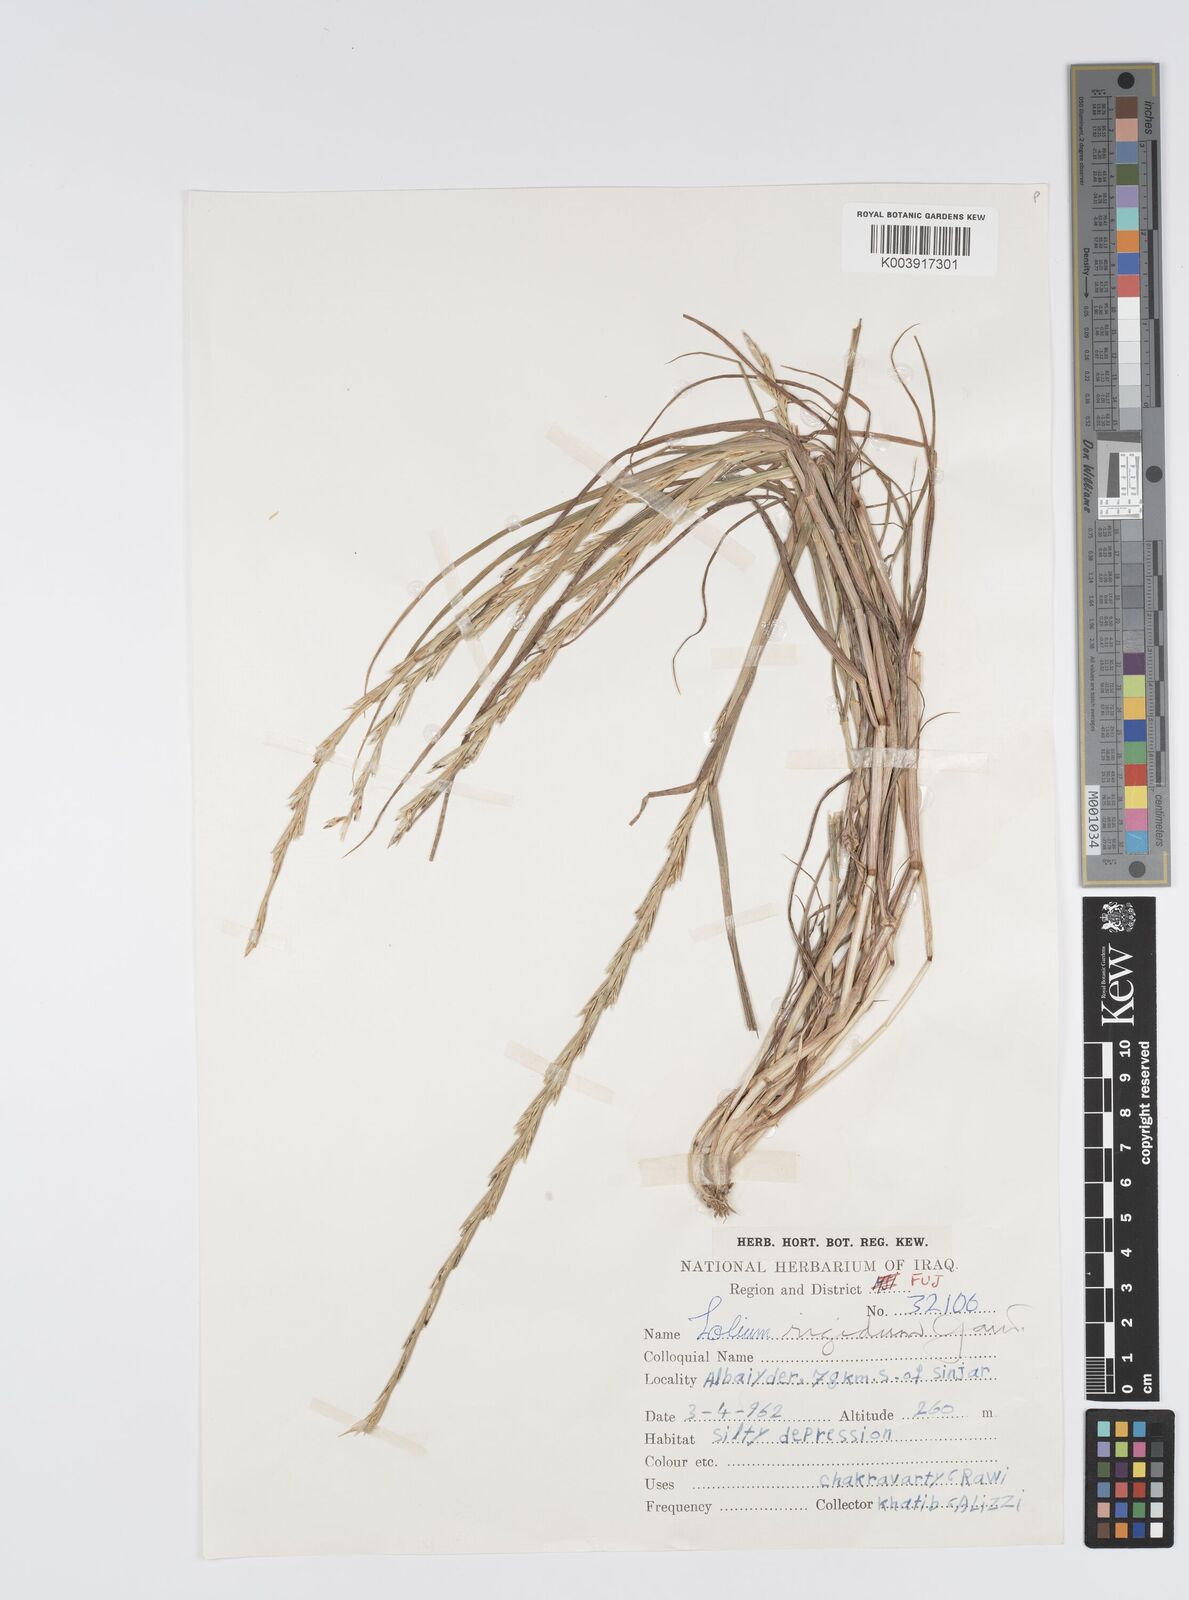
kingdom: Plantae
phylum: Tracheophyta
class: Liliopsida
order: Poales
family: Poaceae
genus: Lolium
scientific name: Lolium rigidum
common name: Wimmera ryegrass
